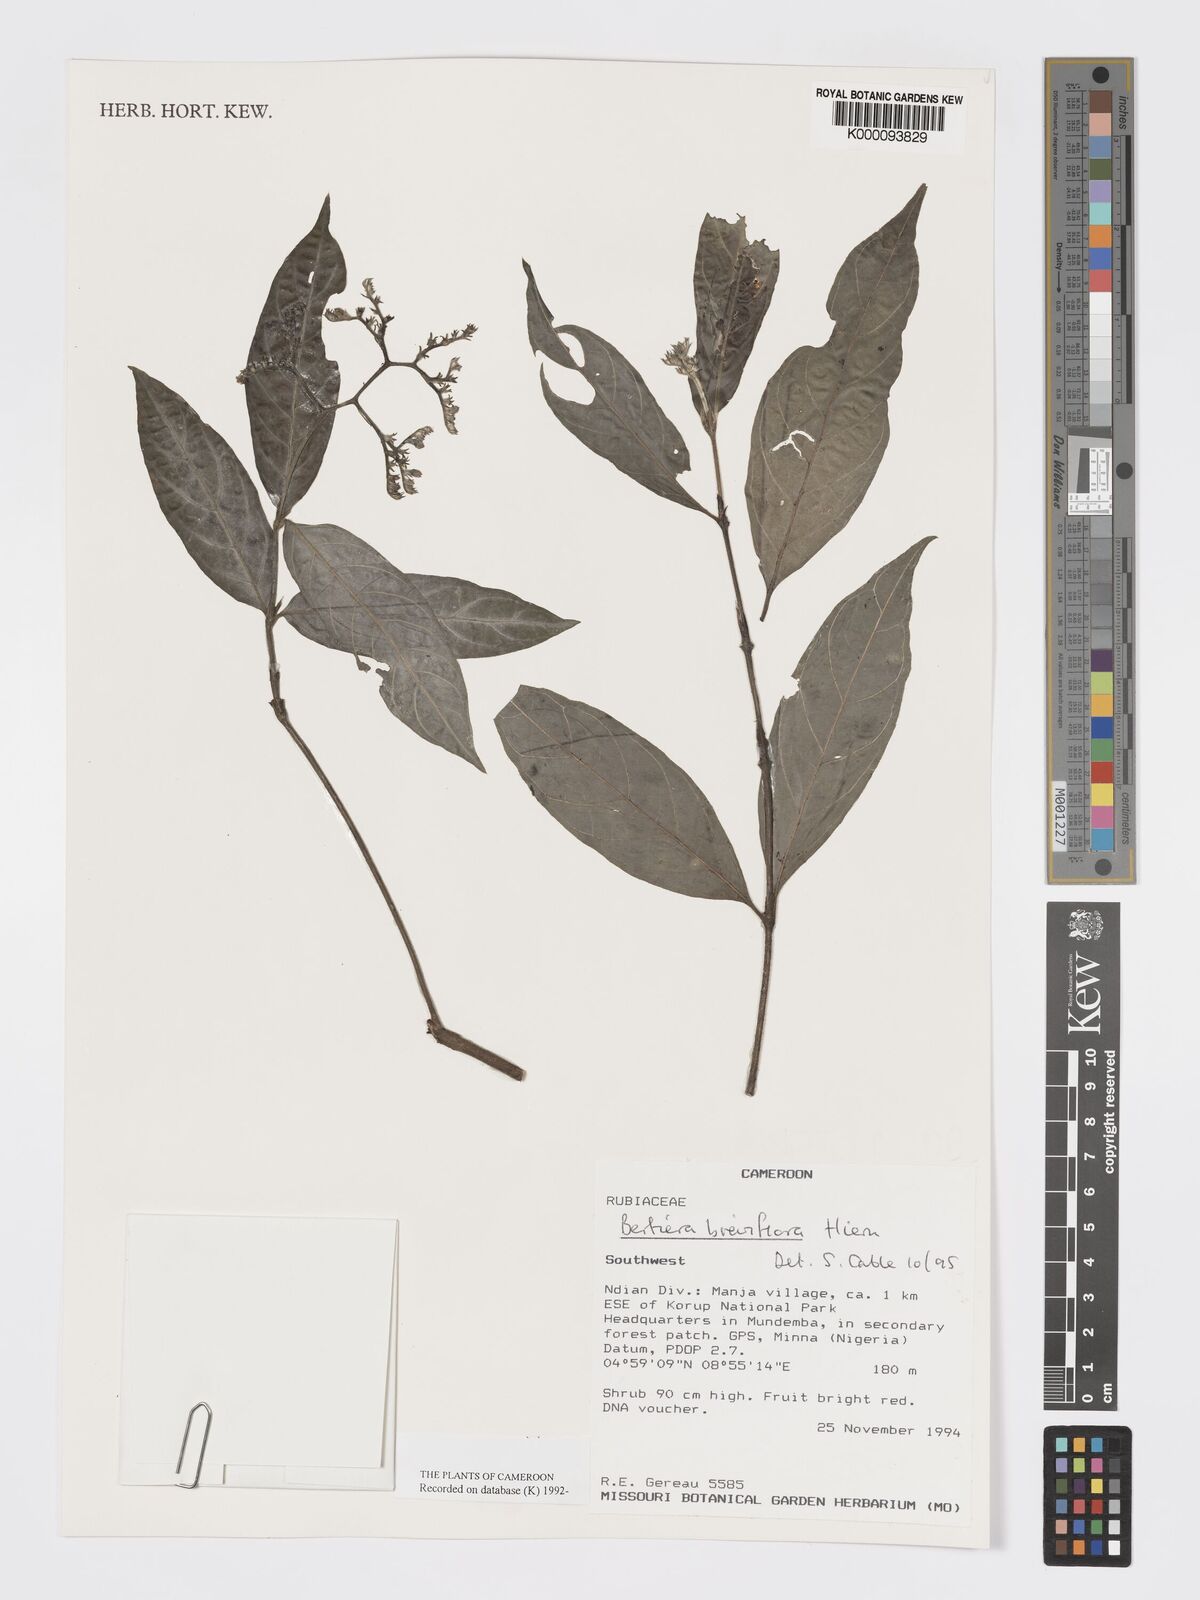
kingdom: Plantae
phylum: Tracheophyta
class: Magnoliopsida
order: Gentianales
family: Rubiaceae
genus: Bertiera
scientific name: Bertiera breviflora
